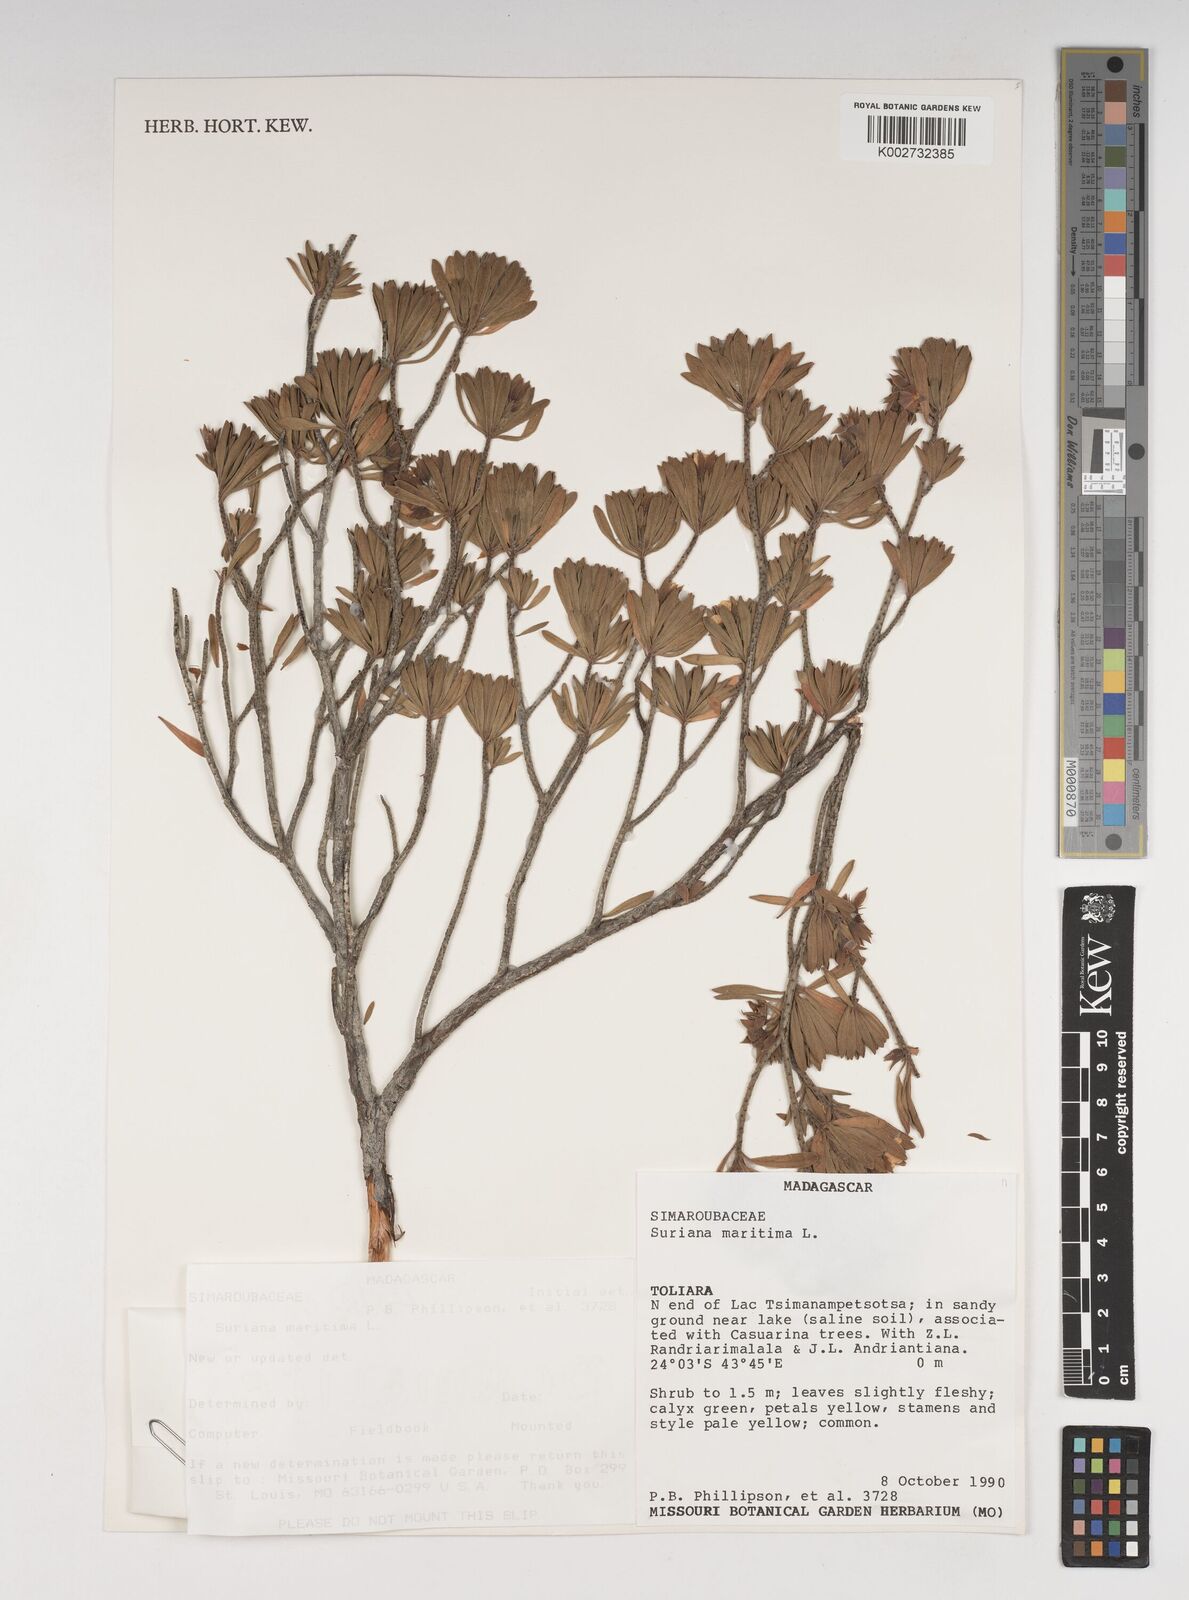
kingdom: Plantae
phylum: Tracheophyta
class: Magnoliopsida
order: Fabales
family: Surianaceae
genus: Suriana
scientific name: Suriana maritima
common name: Bay-cedar
